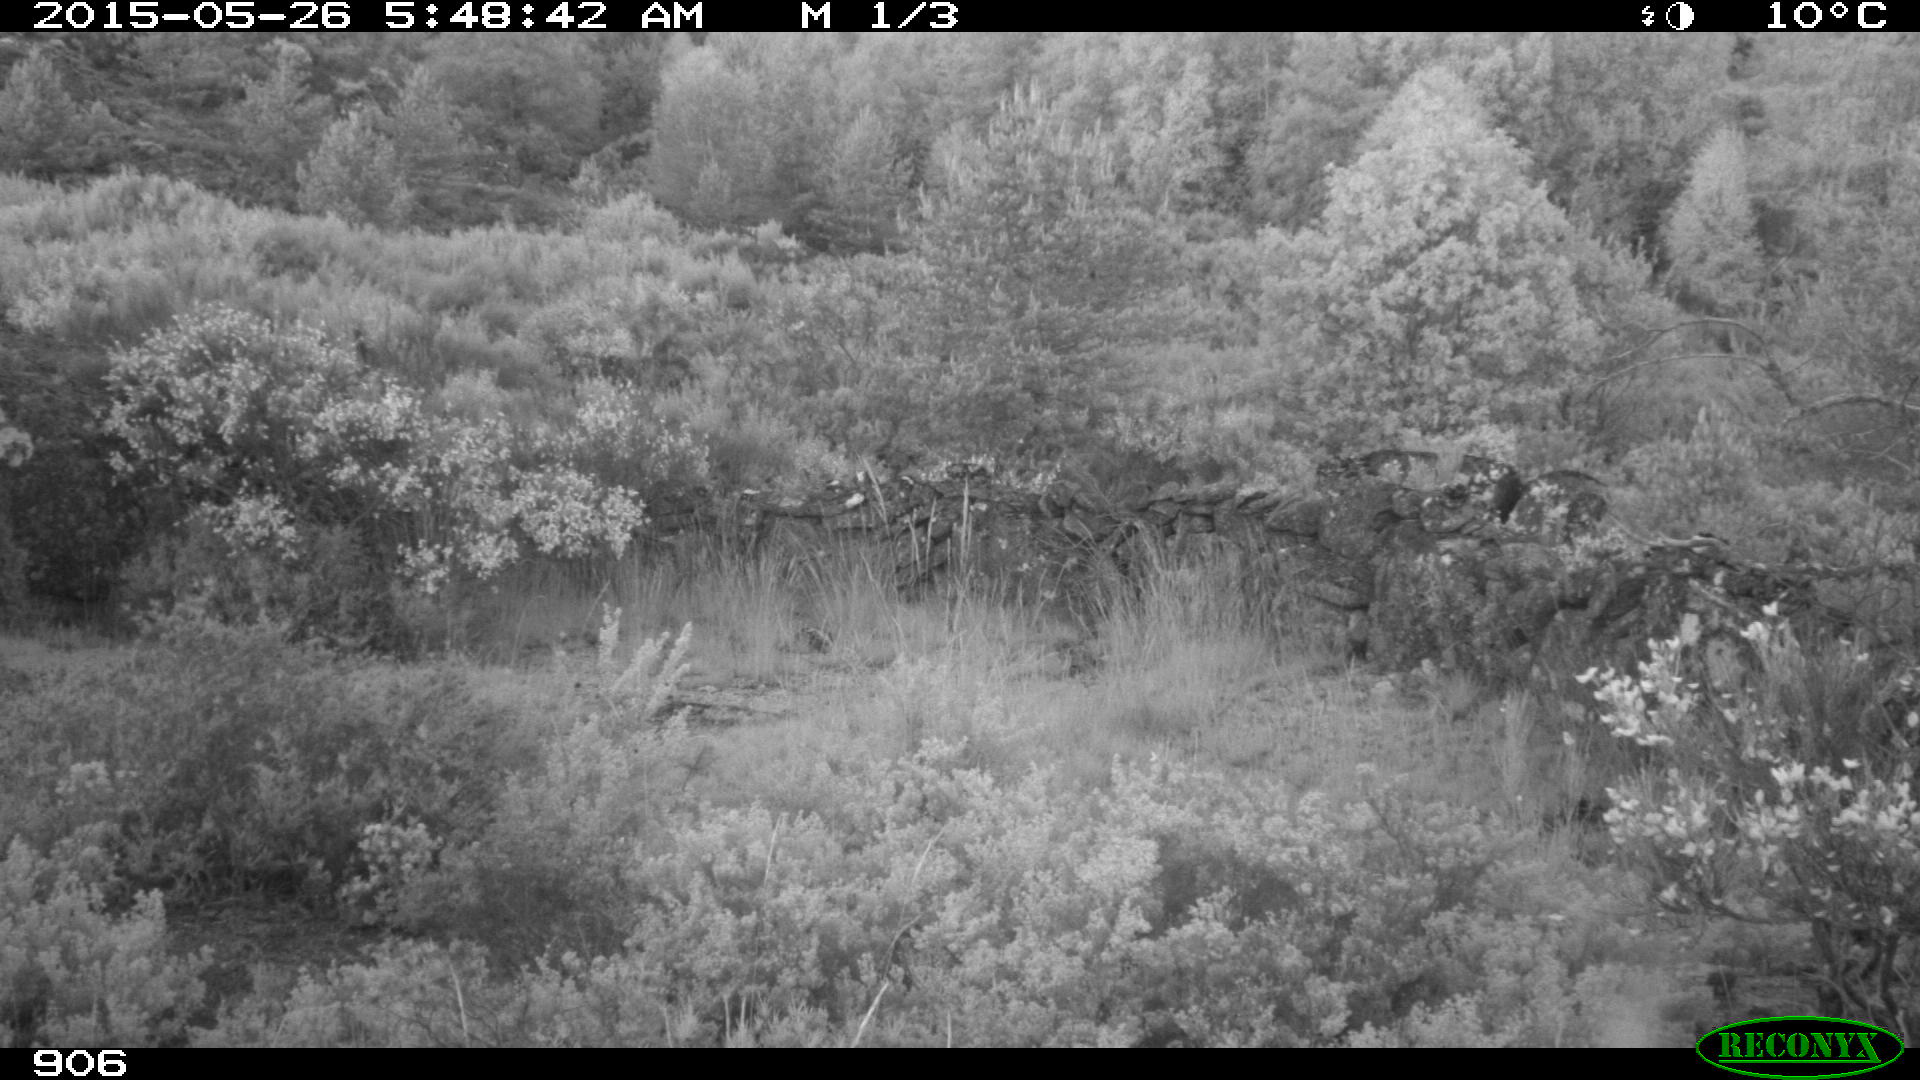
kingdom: Animalia
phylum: Chordata
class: Mammalia
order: Carnivora
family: Canidae
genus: Canis
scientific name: Canis lupus
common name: Gray wolf
